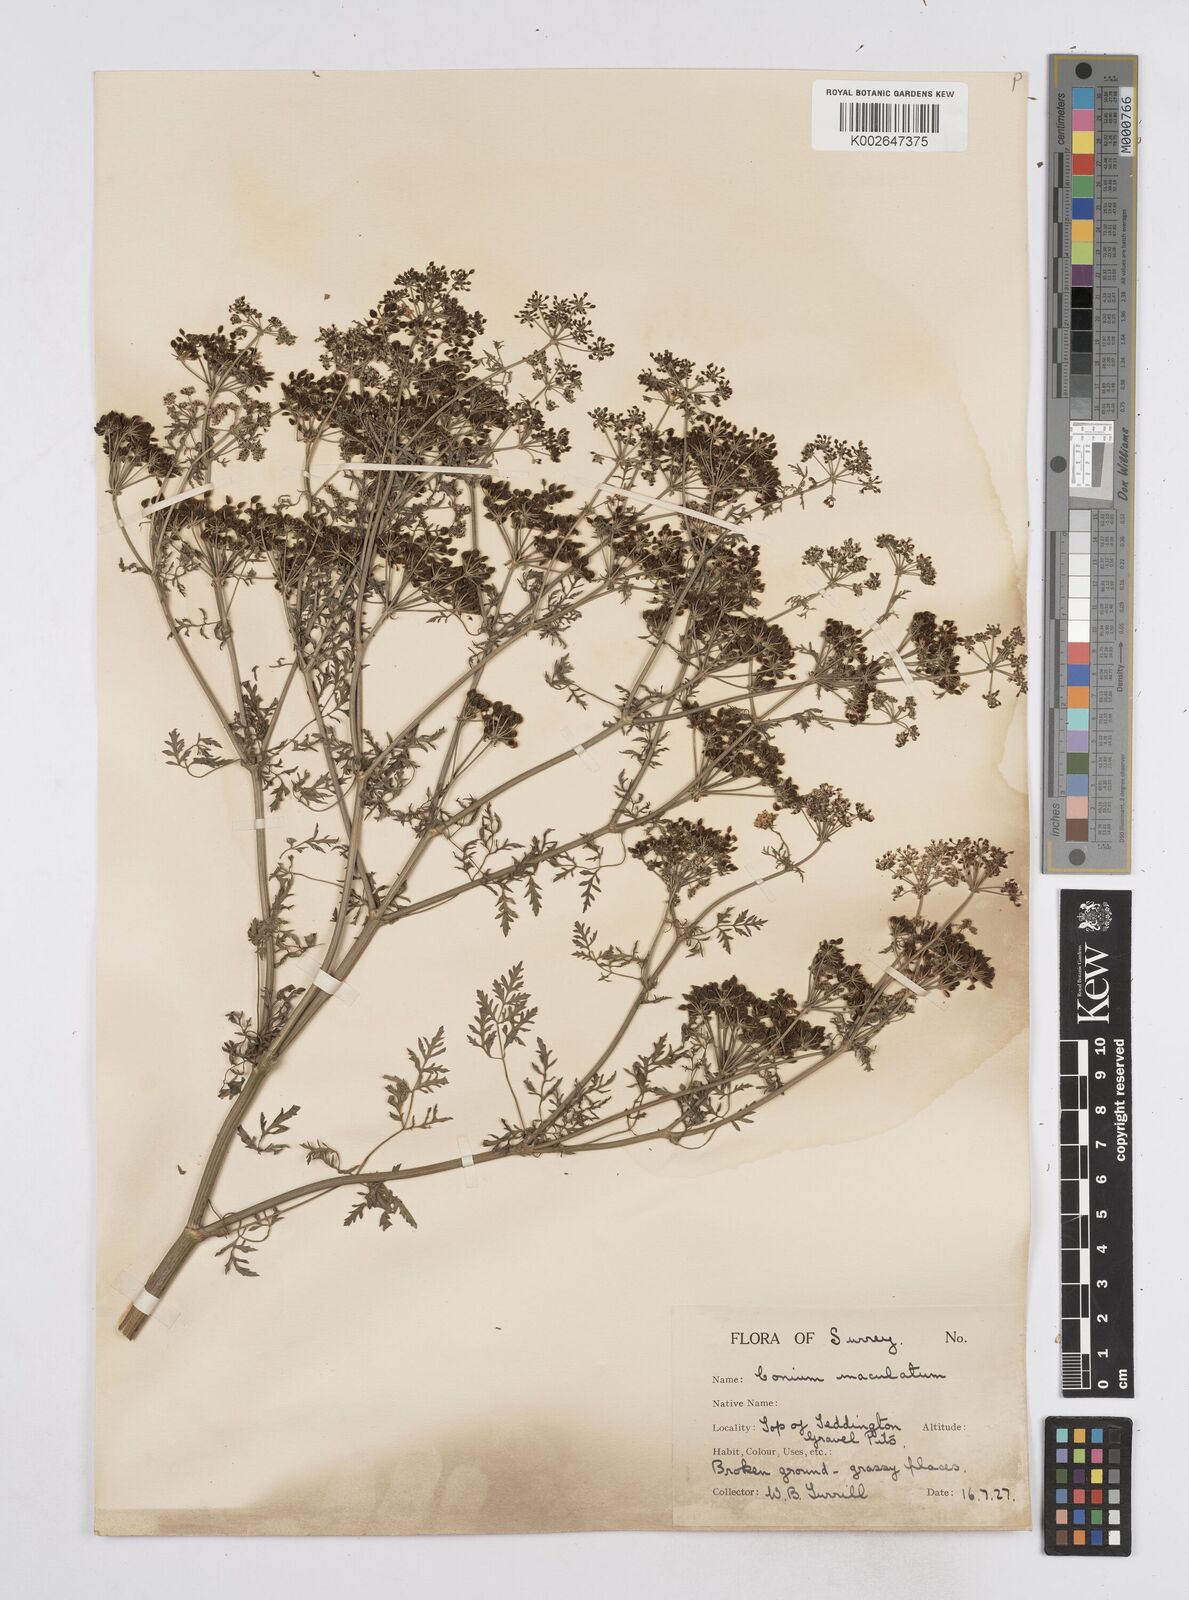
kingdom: Plantae
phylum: Tracheophyta
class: Magnoliopsida
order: Apiales
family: Apiaceae
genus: Conium
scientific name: Conium maculatum
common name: Hemlock
